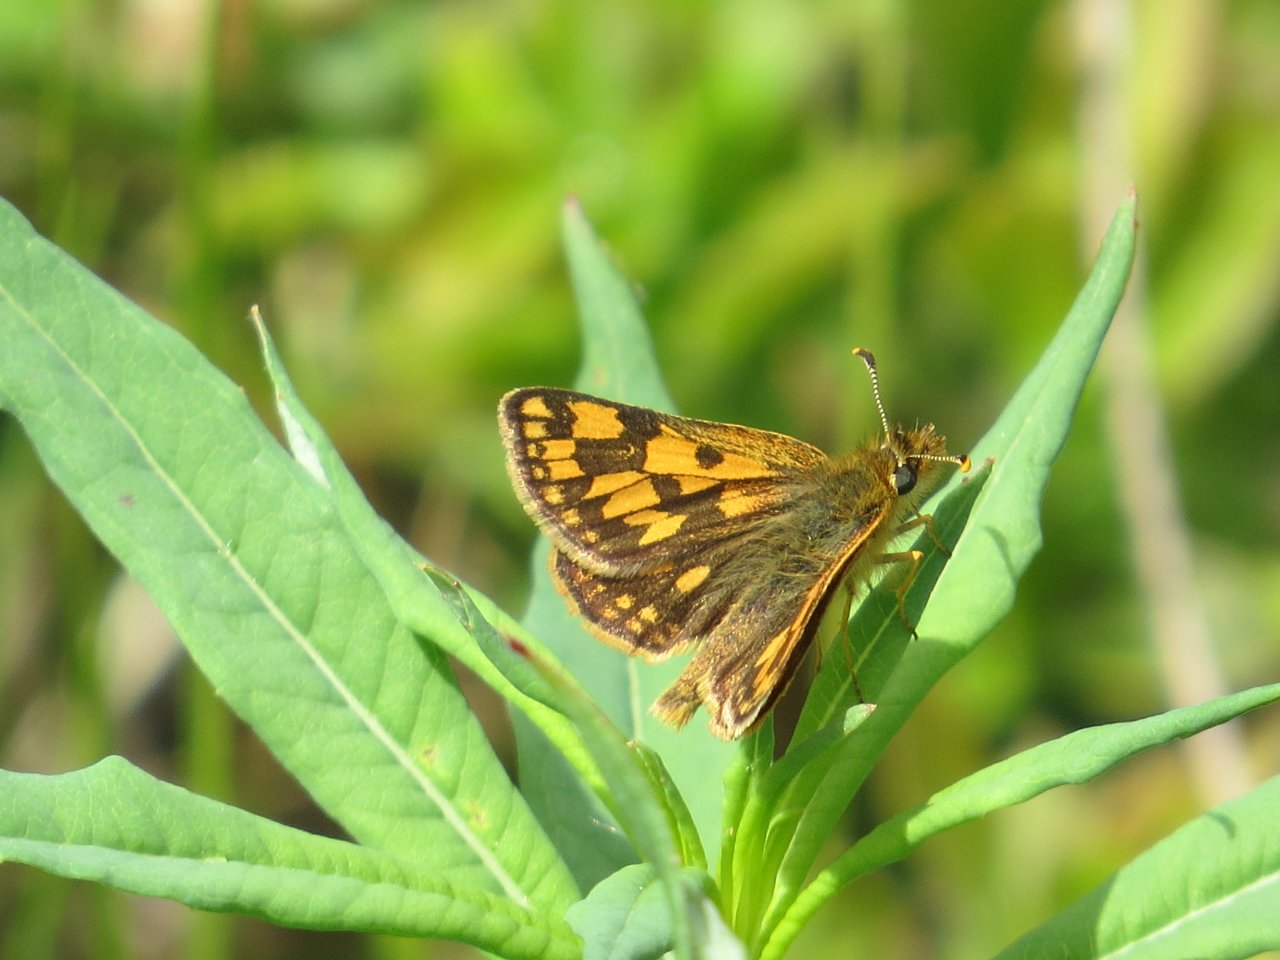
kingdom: Animalia
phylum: Arthropoda
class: Insecta
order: Lepidoptera
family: Hesperiidae
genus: Carterocephalus
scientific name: Carterocephalus palaemon
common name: Chequered Skipper
